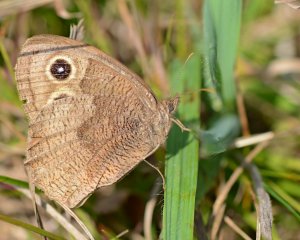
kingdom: Animalia
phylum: Arthropoda
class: Insecta
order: Lepidoptera
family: Nymphalidae
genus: Cercyonis
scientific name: Cercyonis pegala
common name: Common Wood-Nymph
